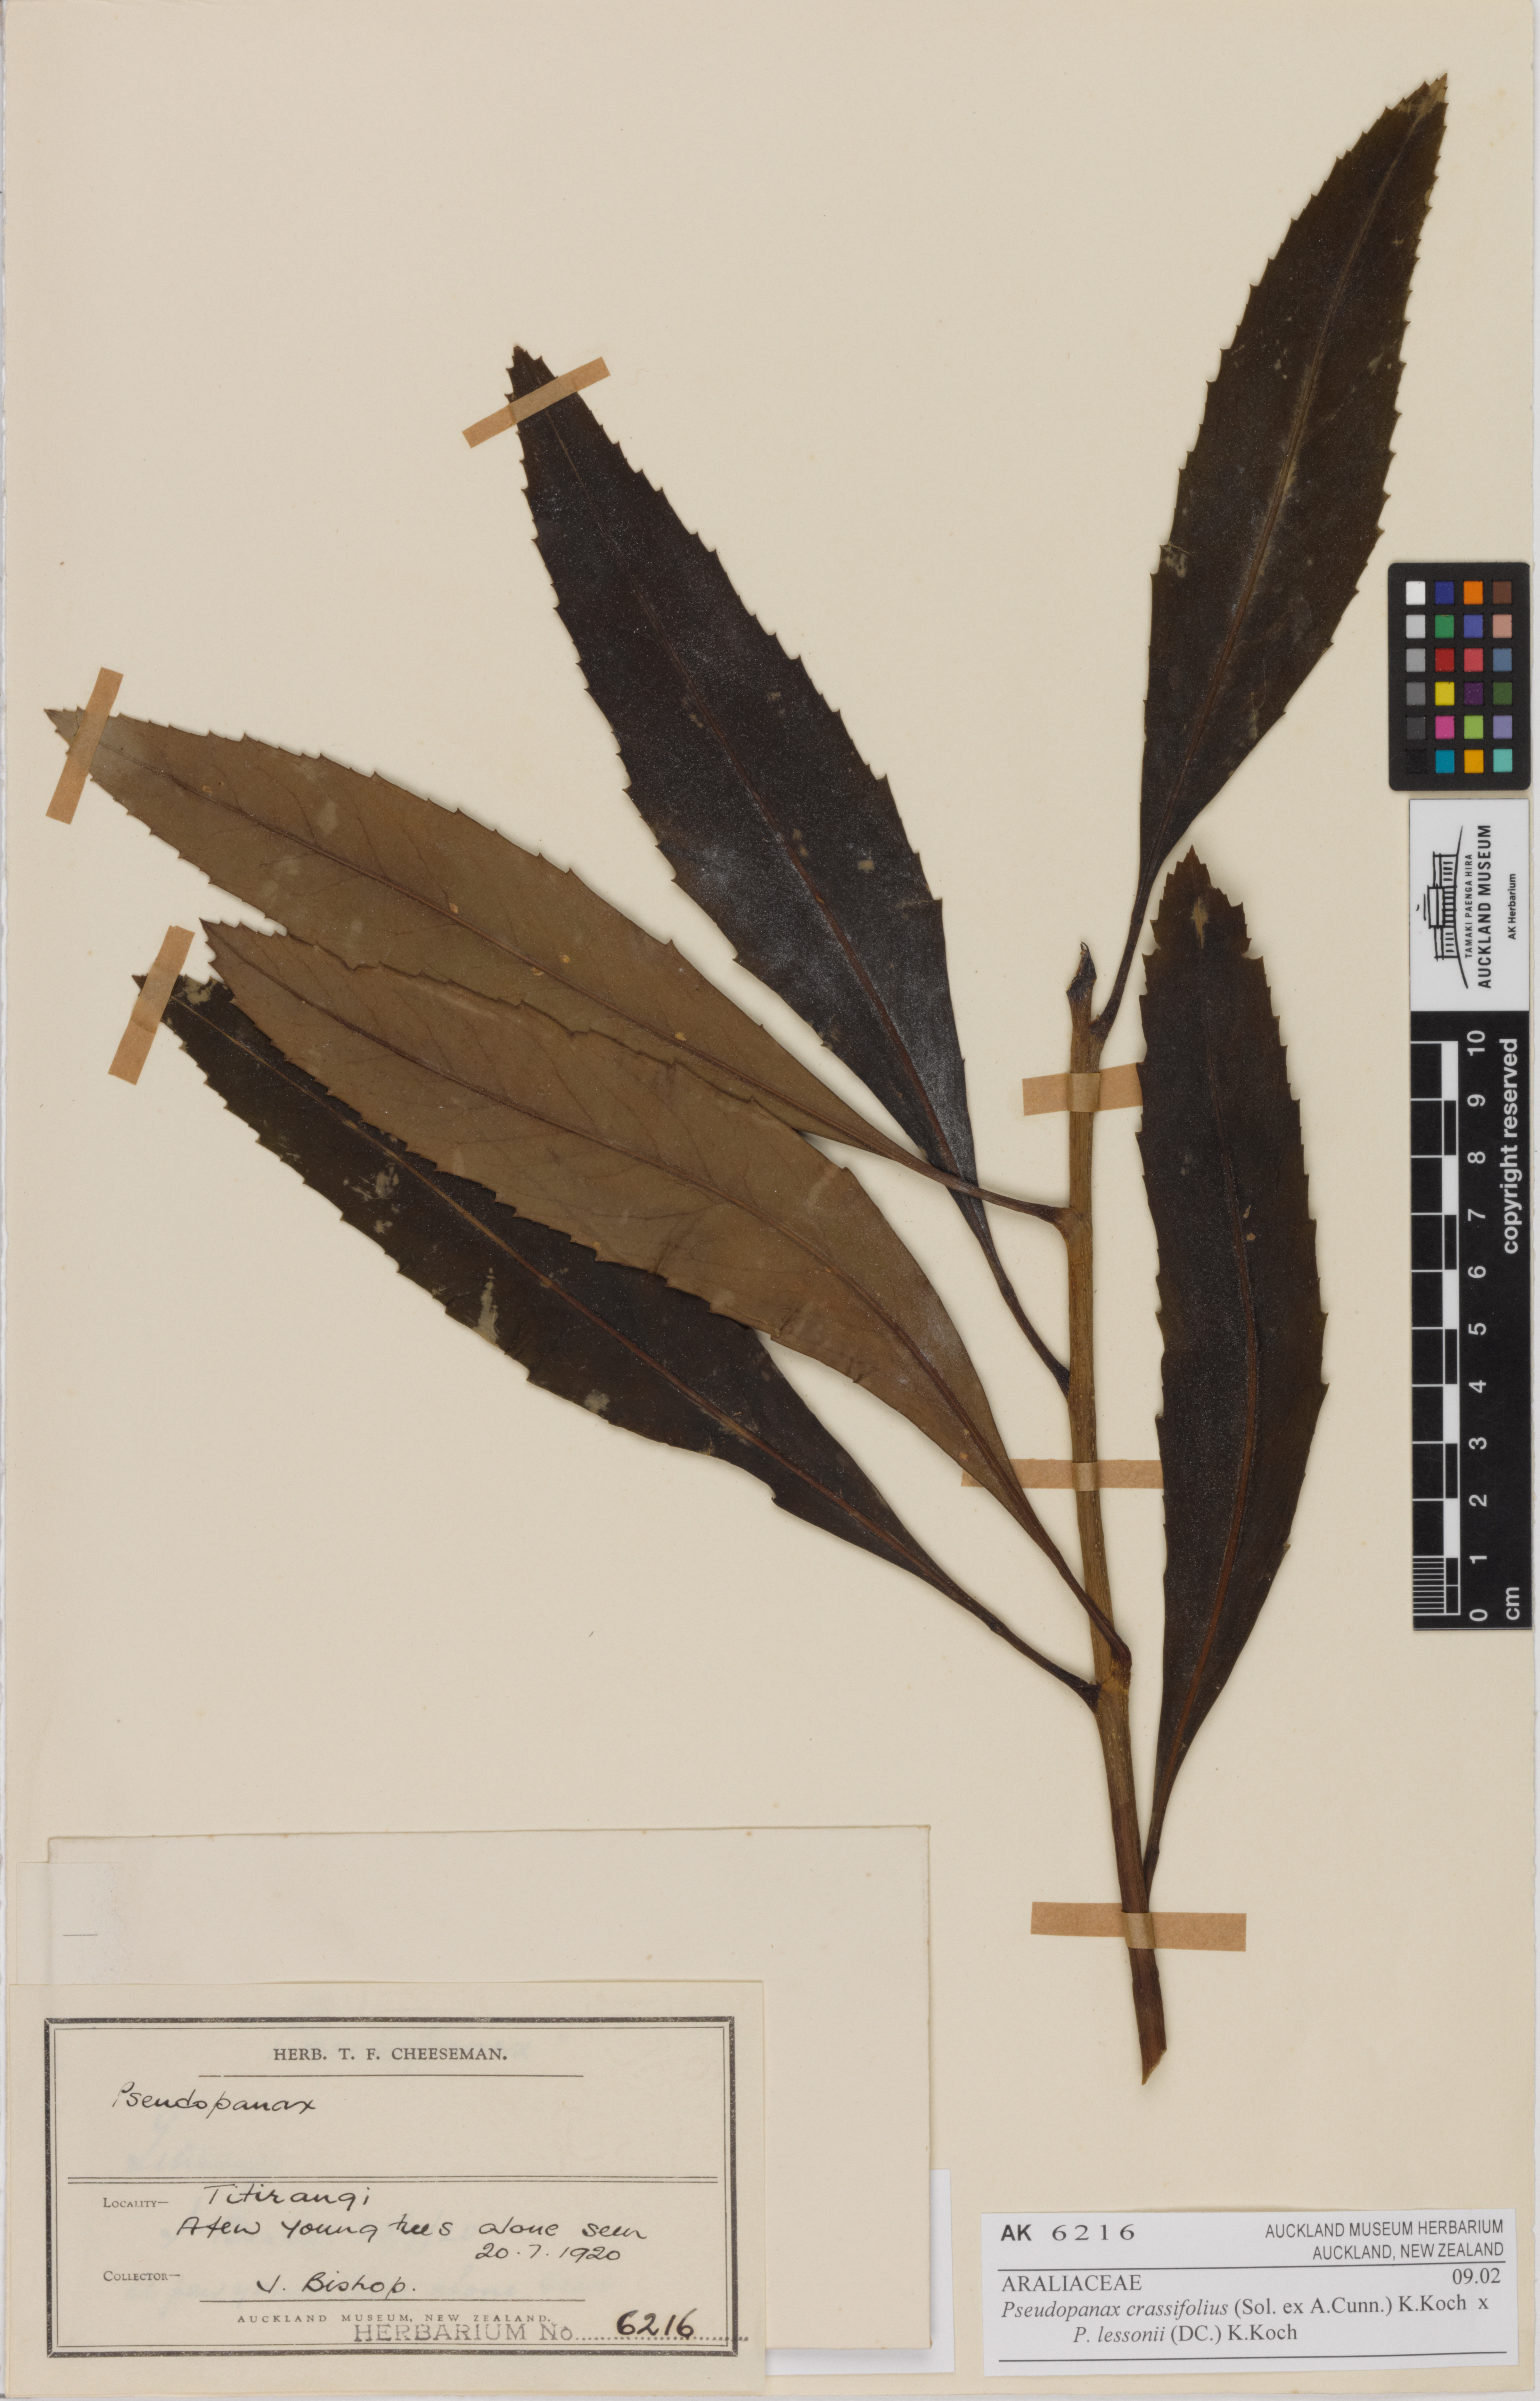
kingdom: Plantae
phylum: Tracheophyta
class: Magnoliopsida
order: Apiales
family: Araliaceae
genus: Pseudopanax
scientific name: Pseudopanax
